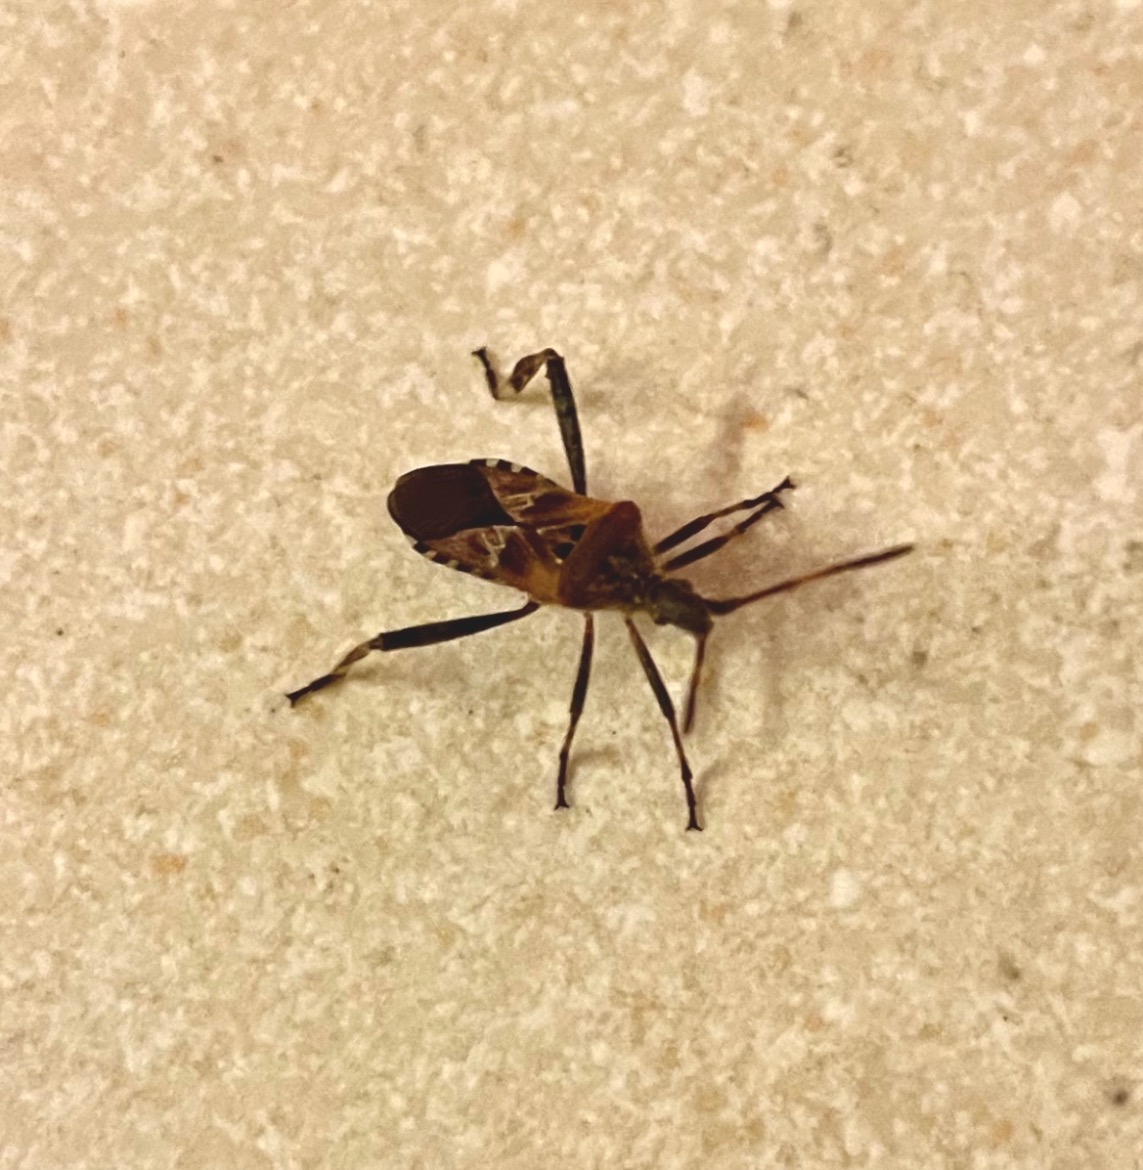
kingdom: Animalia
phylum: Arthropoda
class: Insecta
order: Hemiptera
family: Coreidae
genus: Leptoglossus
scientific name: Leptoglossus occidentalis
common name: Amerikansk fyrretæge
